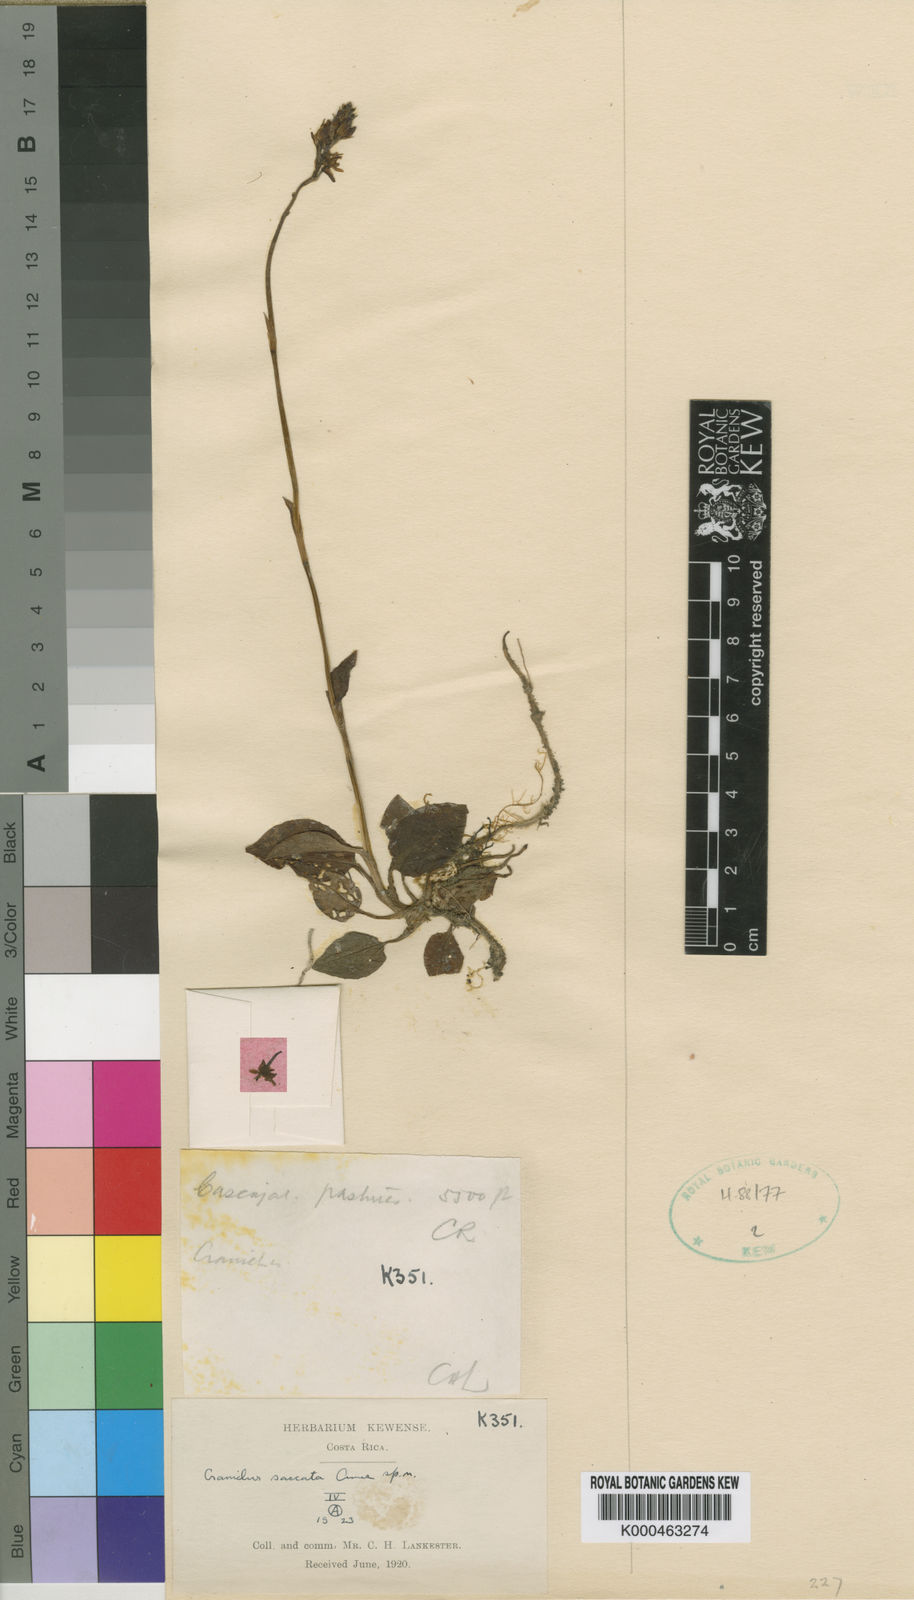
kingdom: Plantae
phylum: Tracheophyta
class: Liliopsida
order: Asparagales
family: Orchidaceae
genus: Cranichis
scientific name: Cranichis saccata
